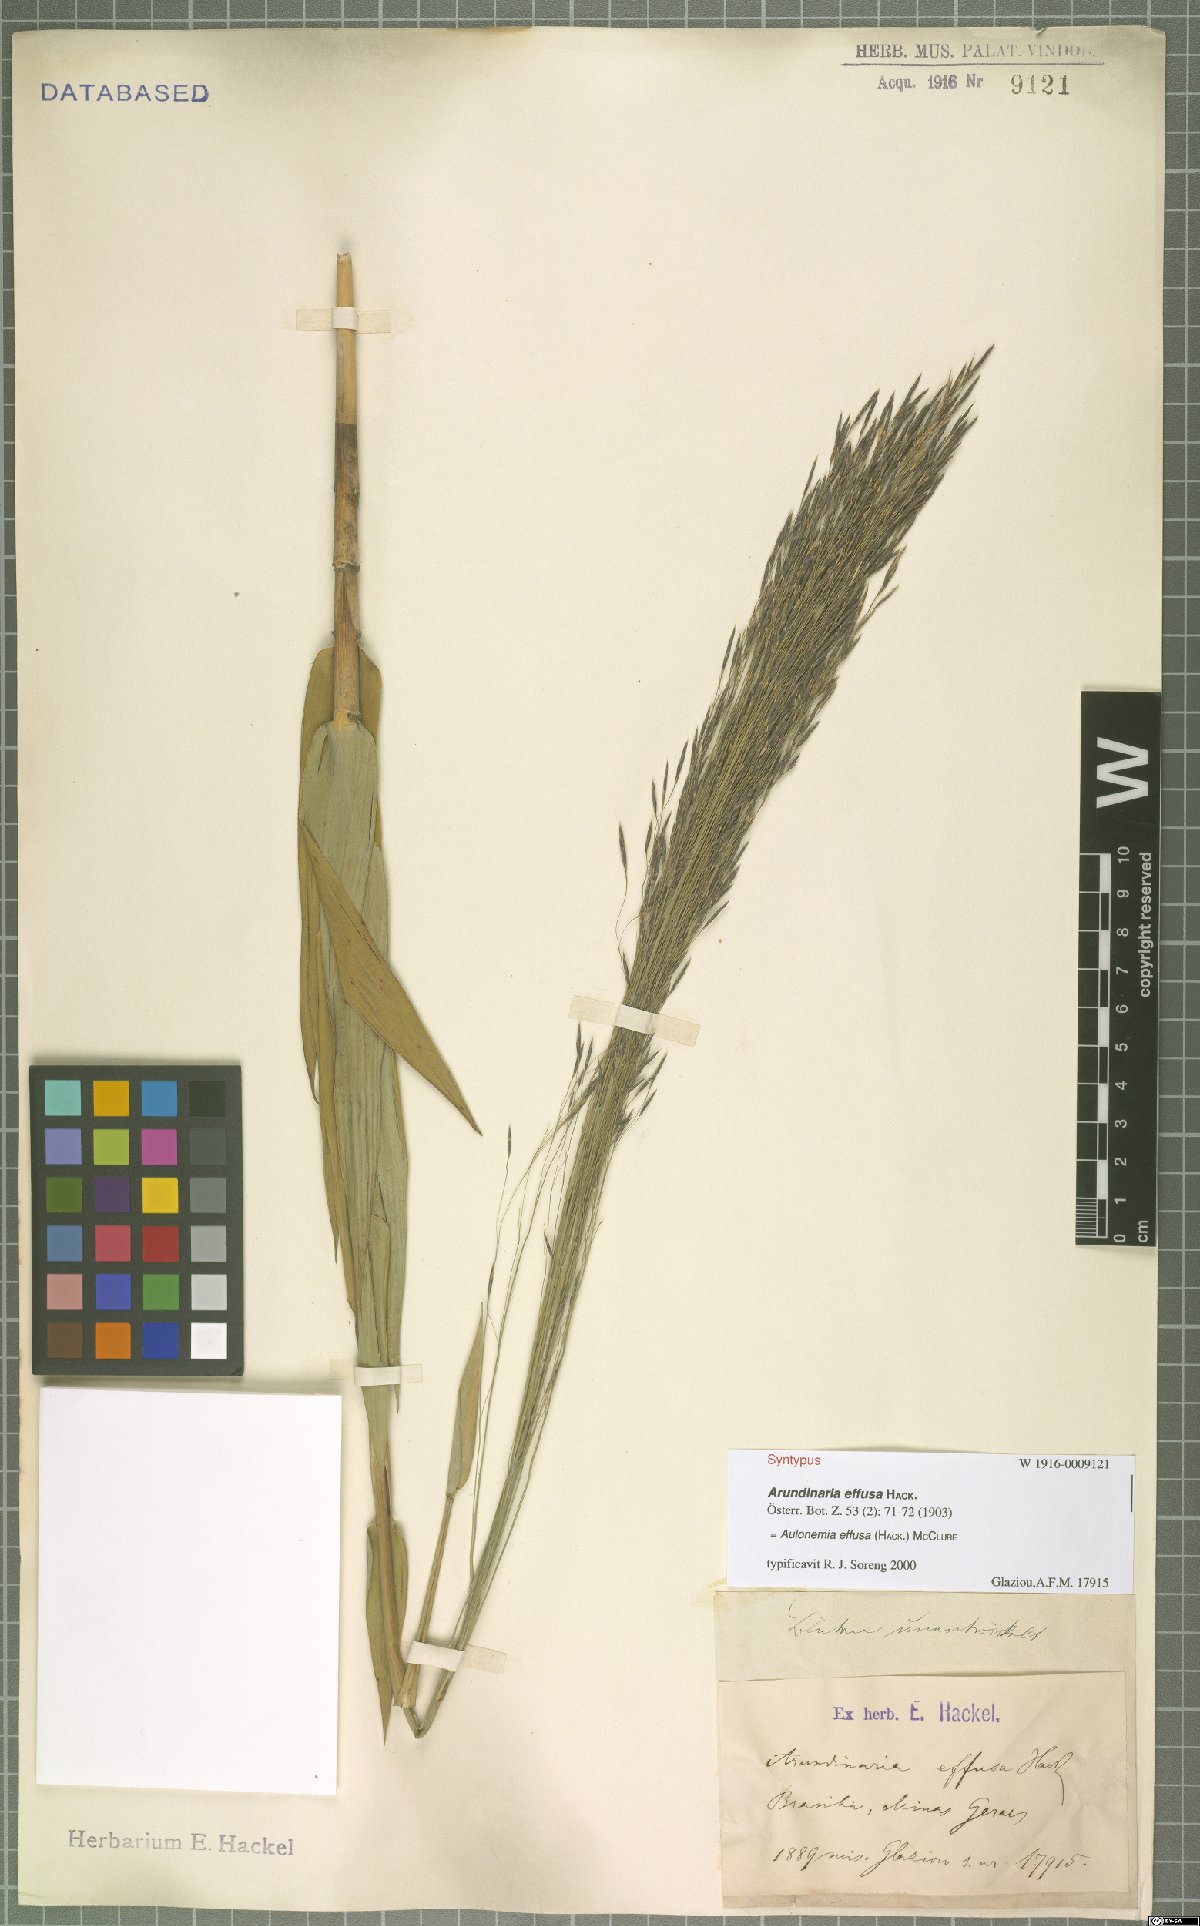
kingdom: Plantae
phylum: Tracheophyta
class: Liliopsida
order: Poales
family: Poaceae
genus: Aulonemia
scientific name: Aulonemia effusa
